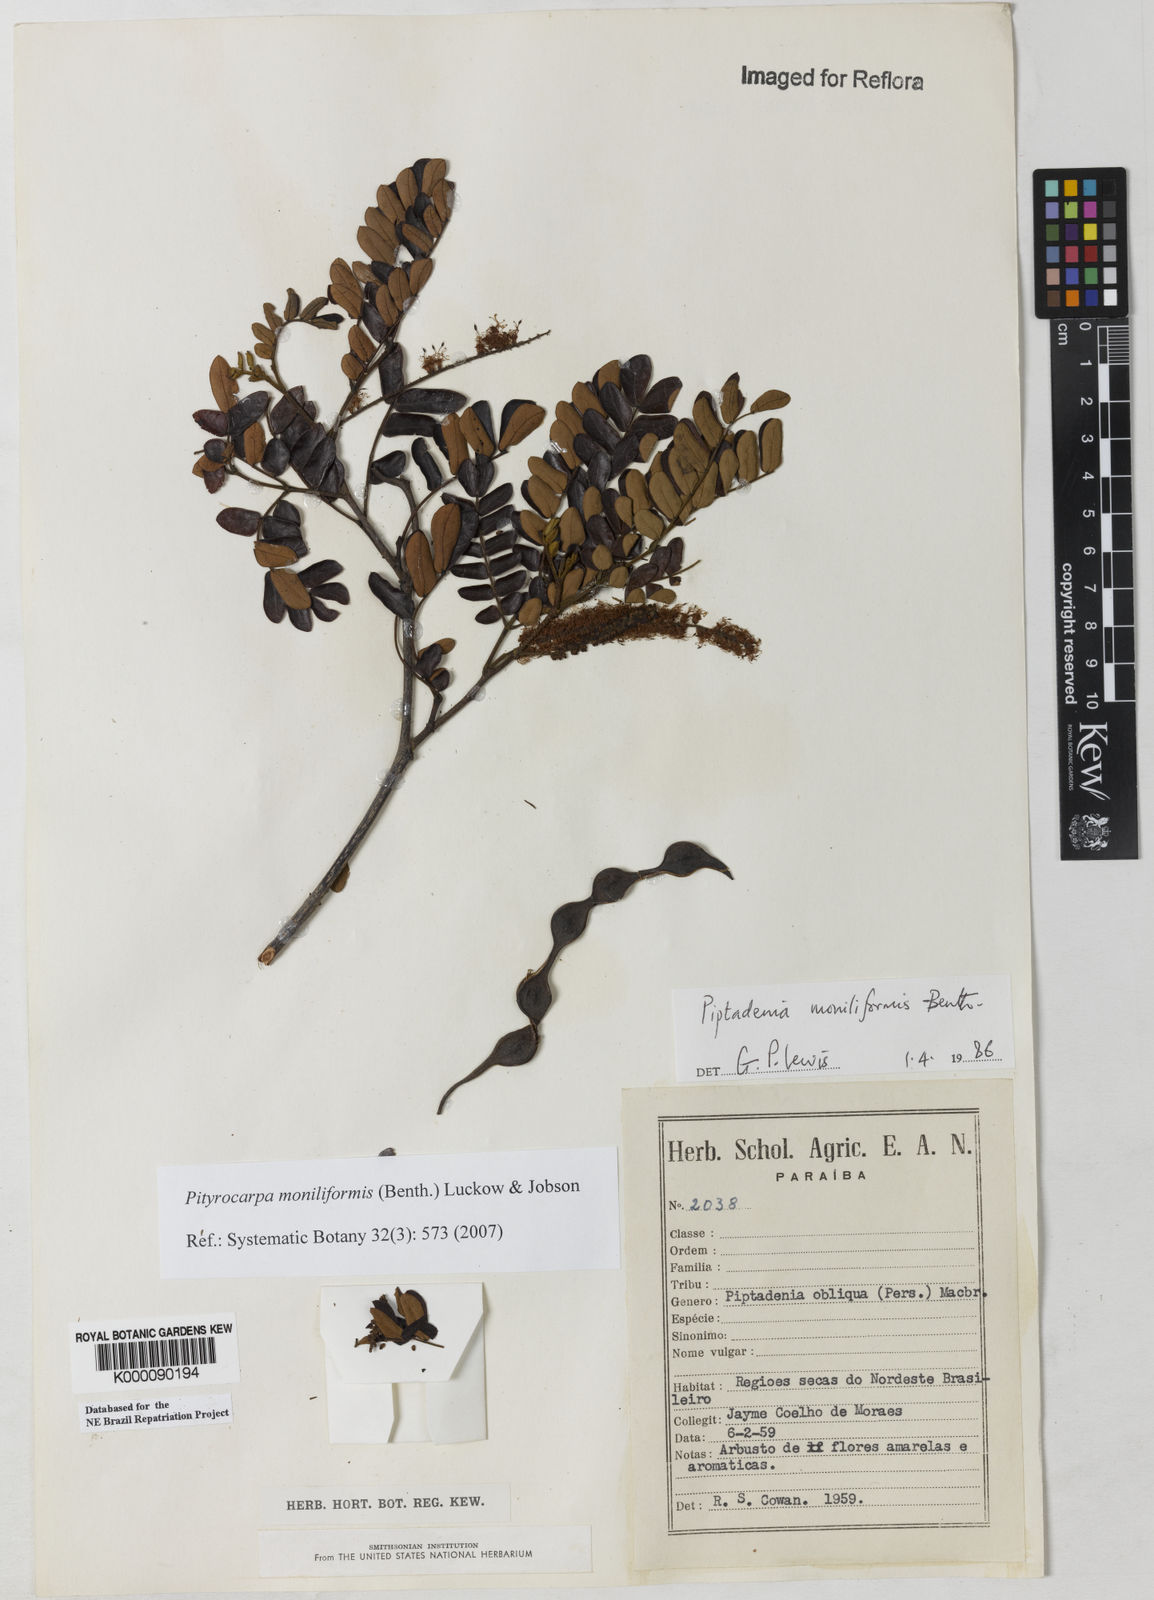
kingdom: Plantae
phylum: Tracheophyta
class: Magnoliopsida
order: Fabales
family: Fabaceae
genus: Pityrocarpa
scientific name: Pityrocarpa moniliformis
